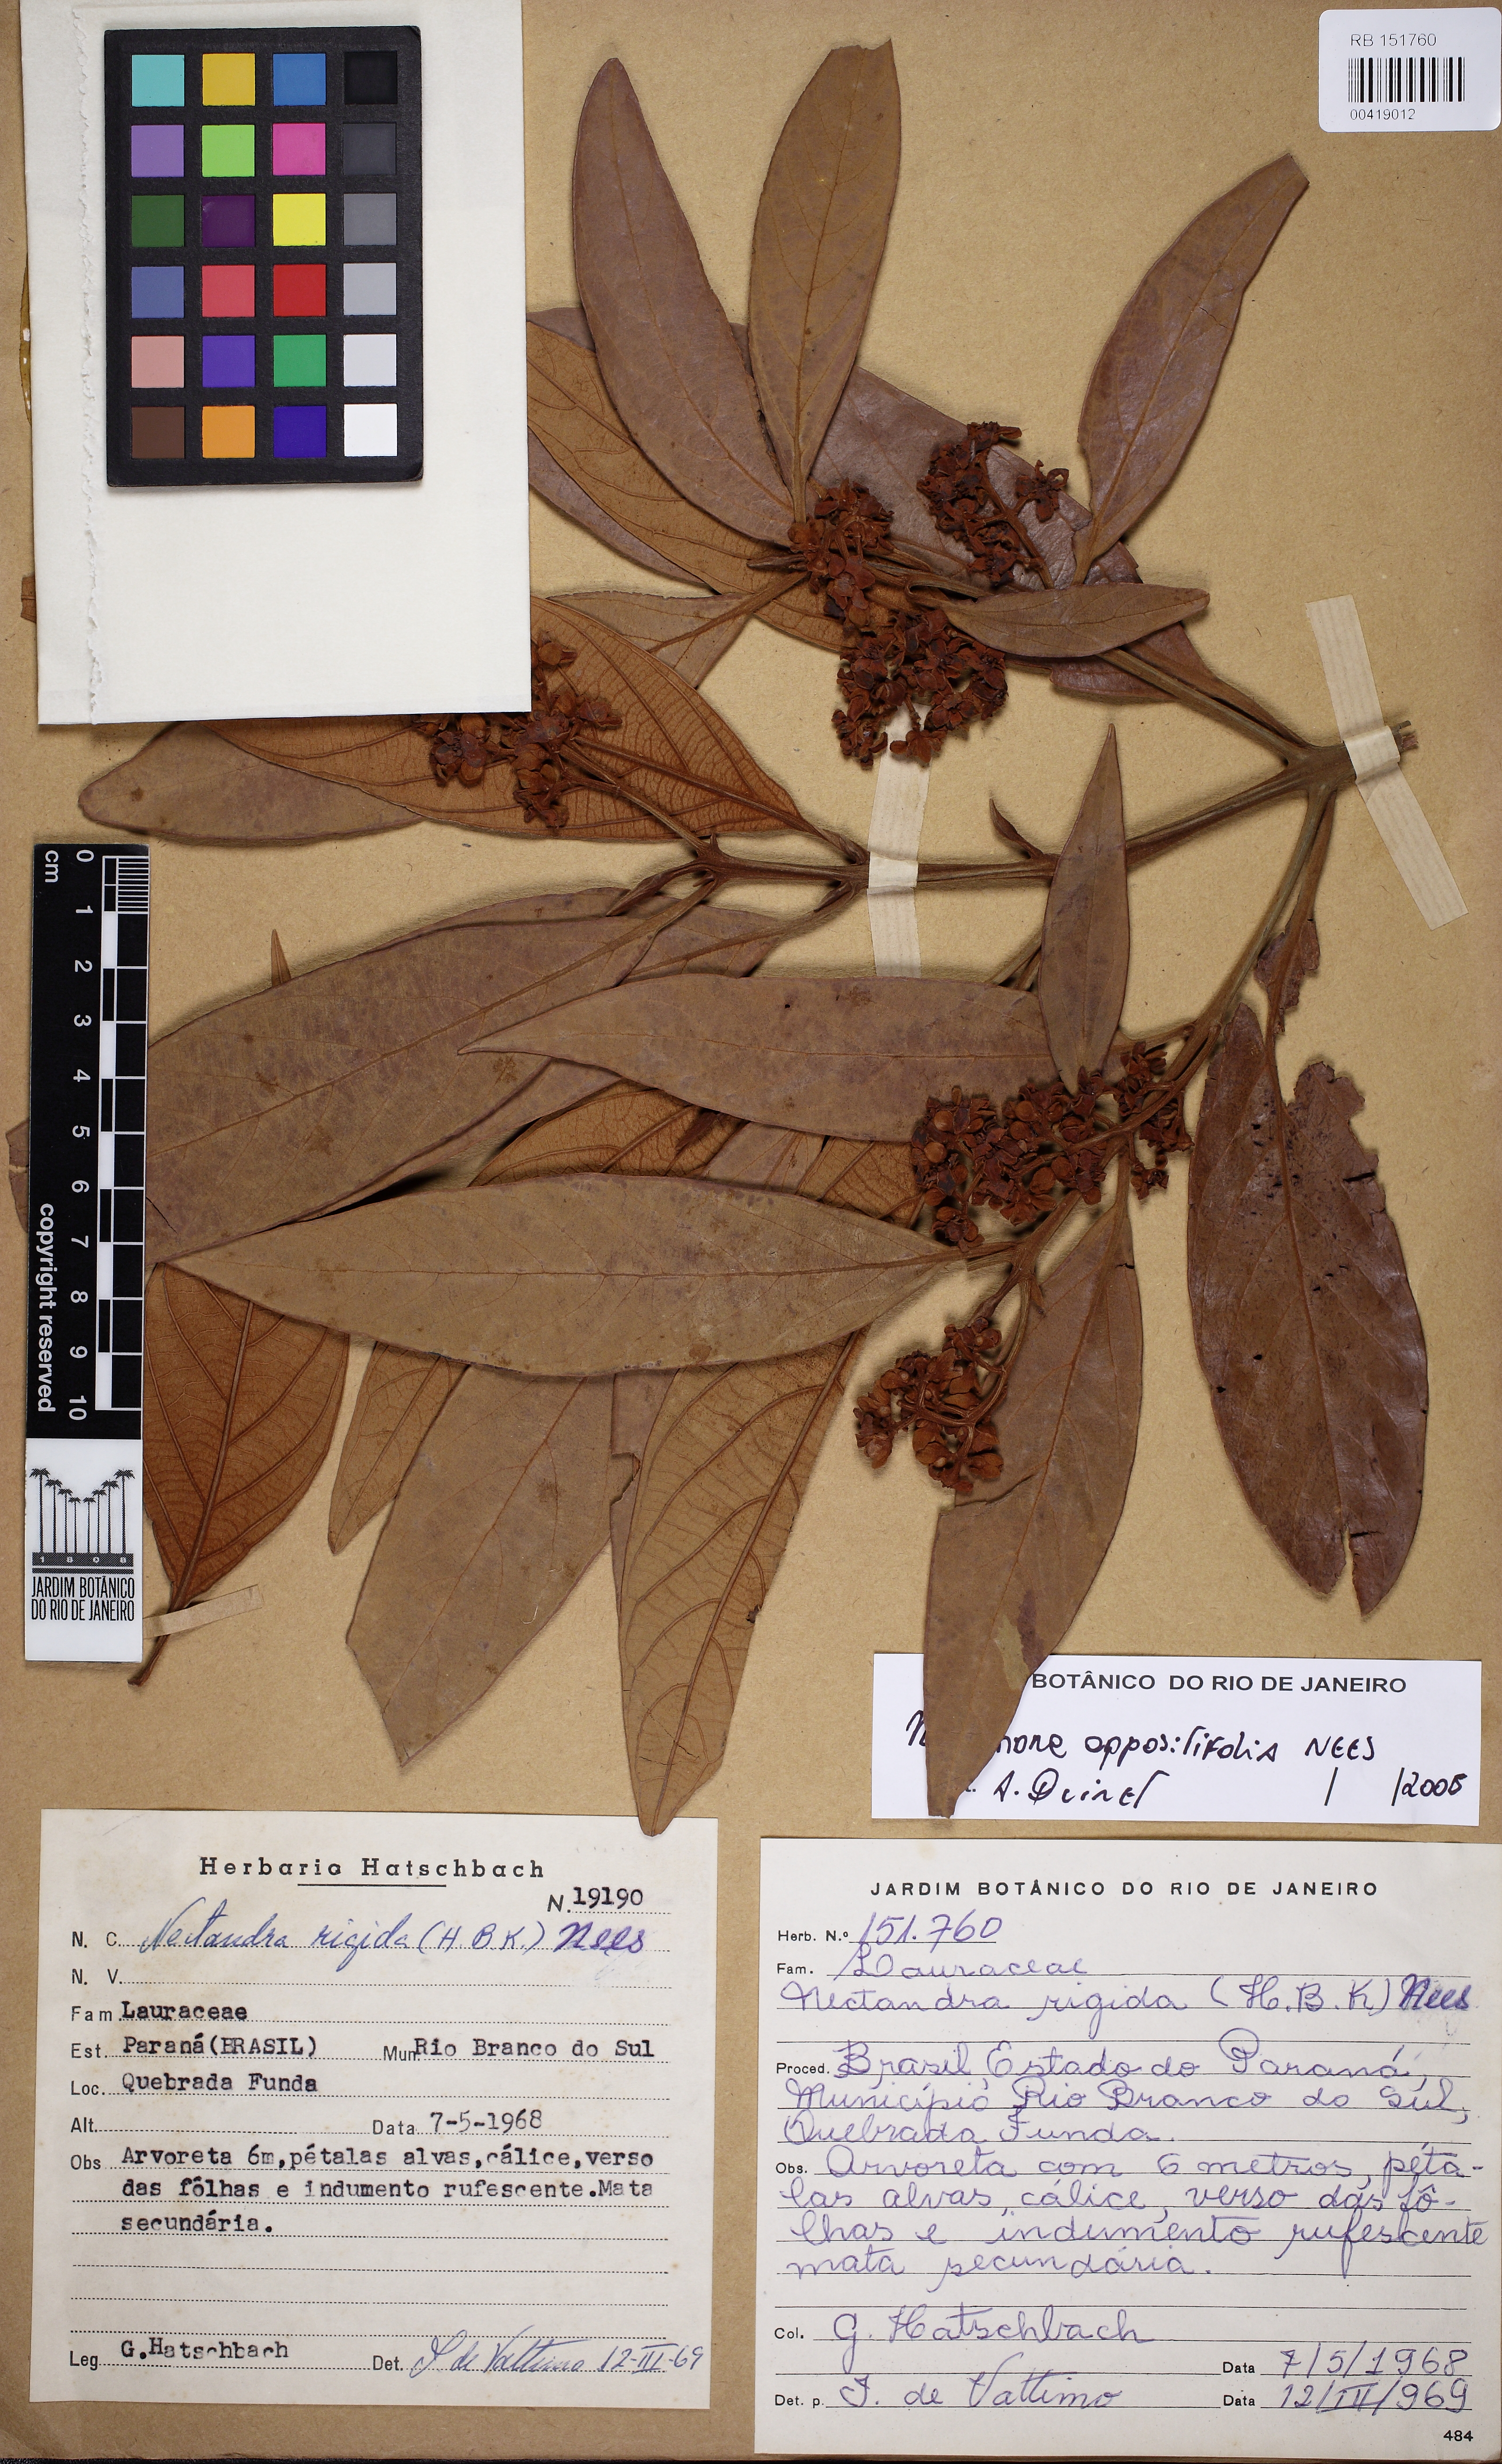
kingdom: Plantae
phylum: Tracheophyta
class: Magnoliopsida
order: Laurales
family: Lauraceae
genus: Nectandra
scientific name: Nectandra oppositifolia
